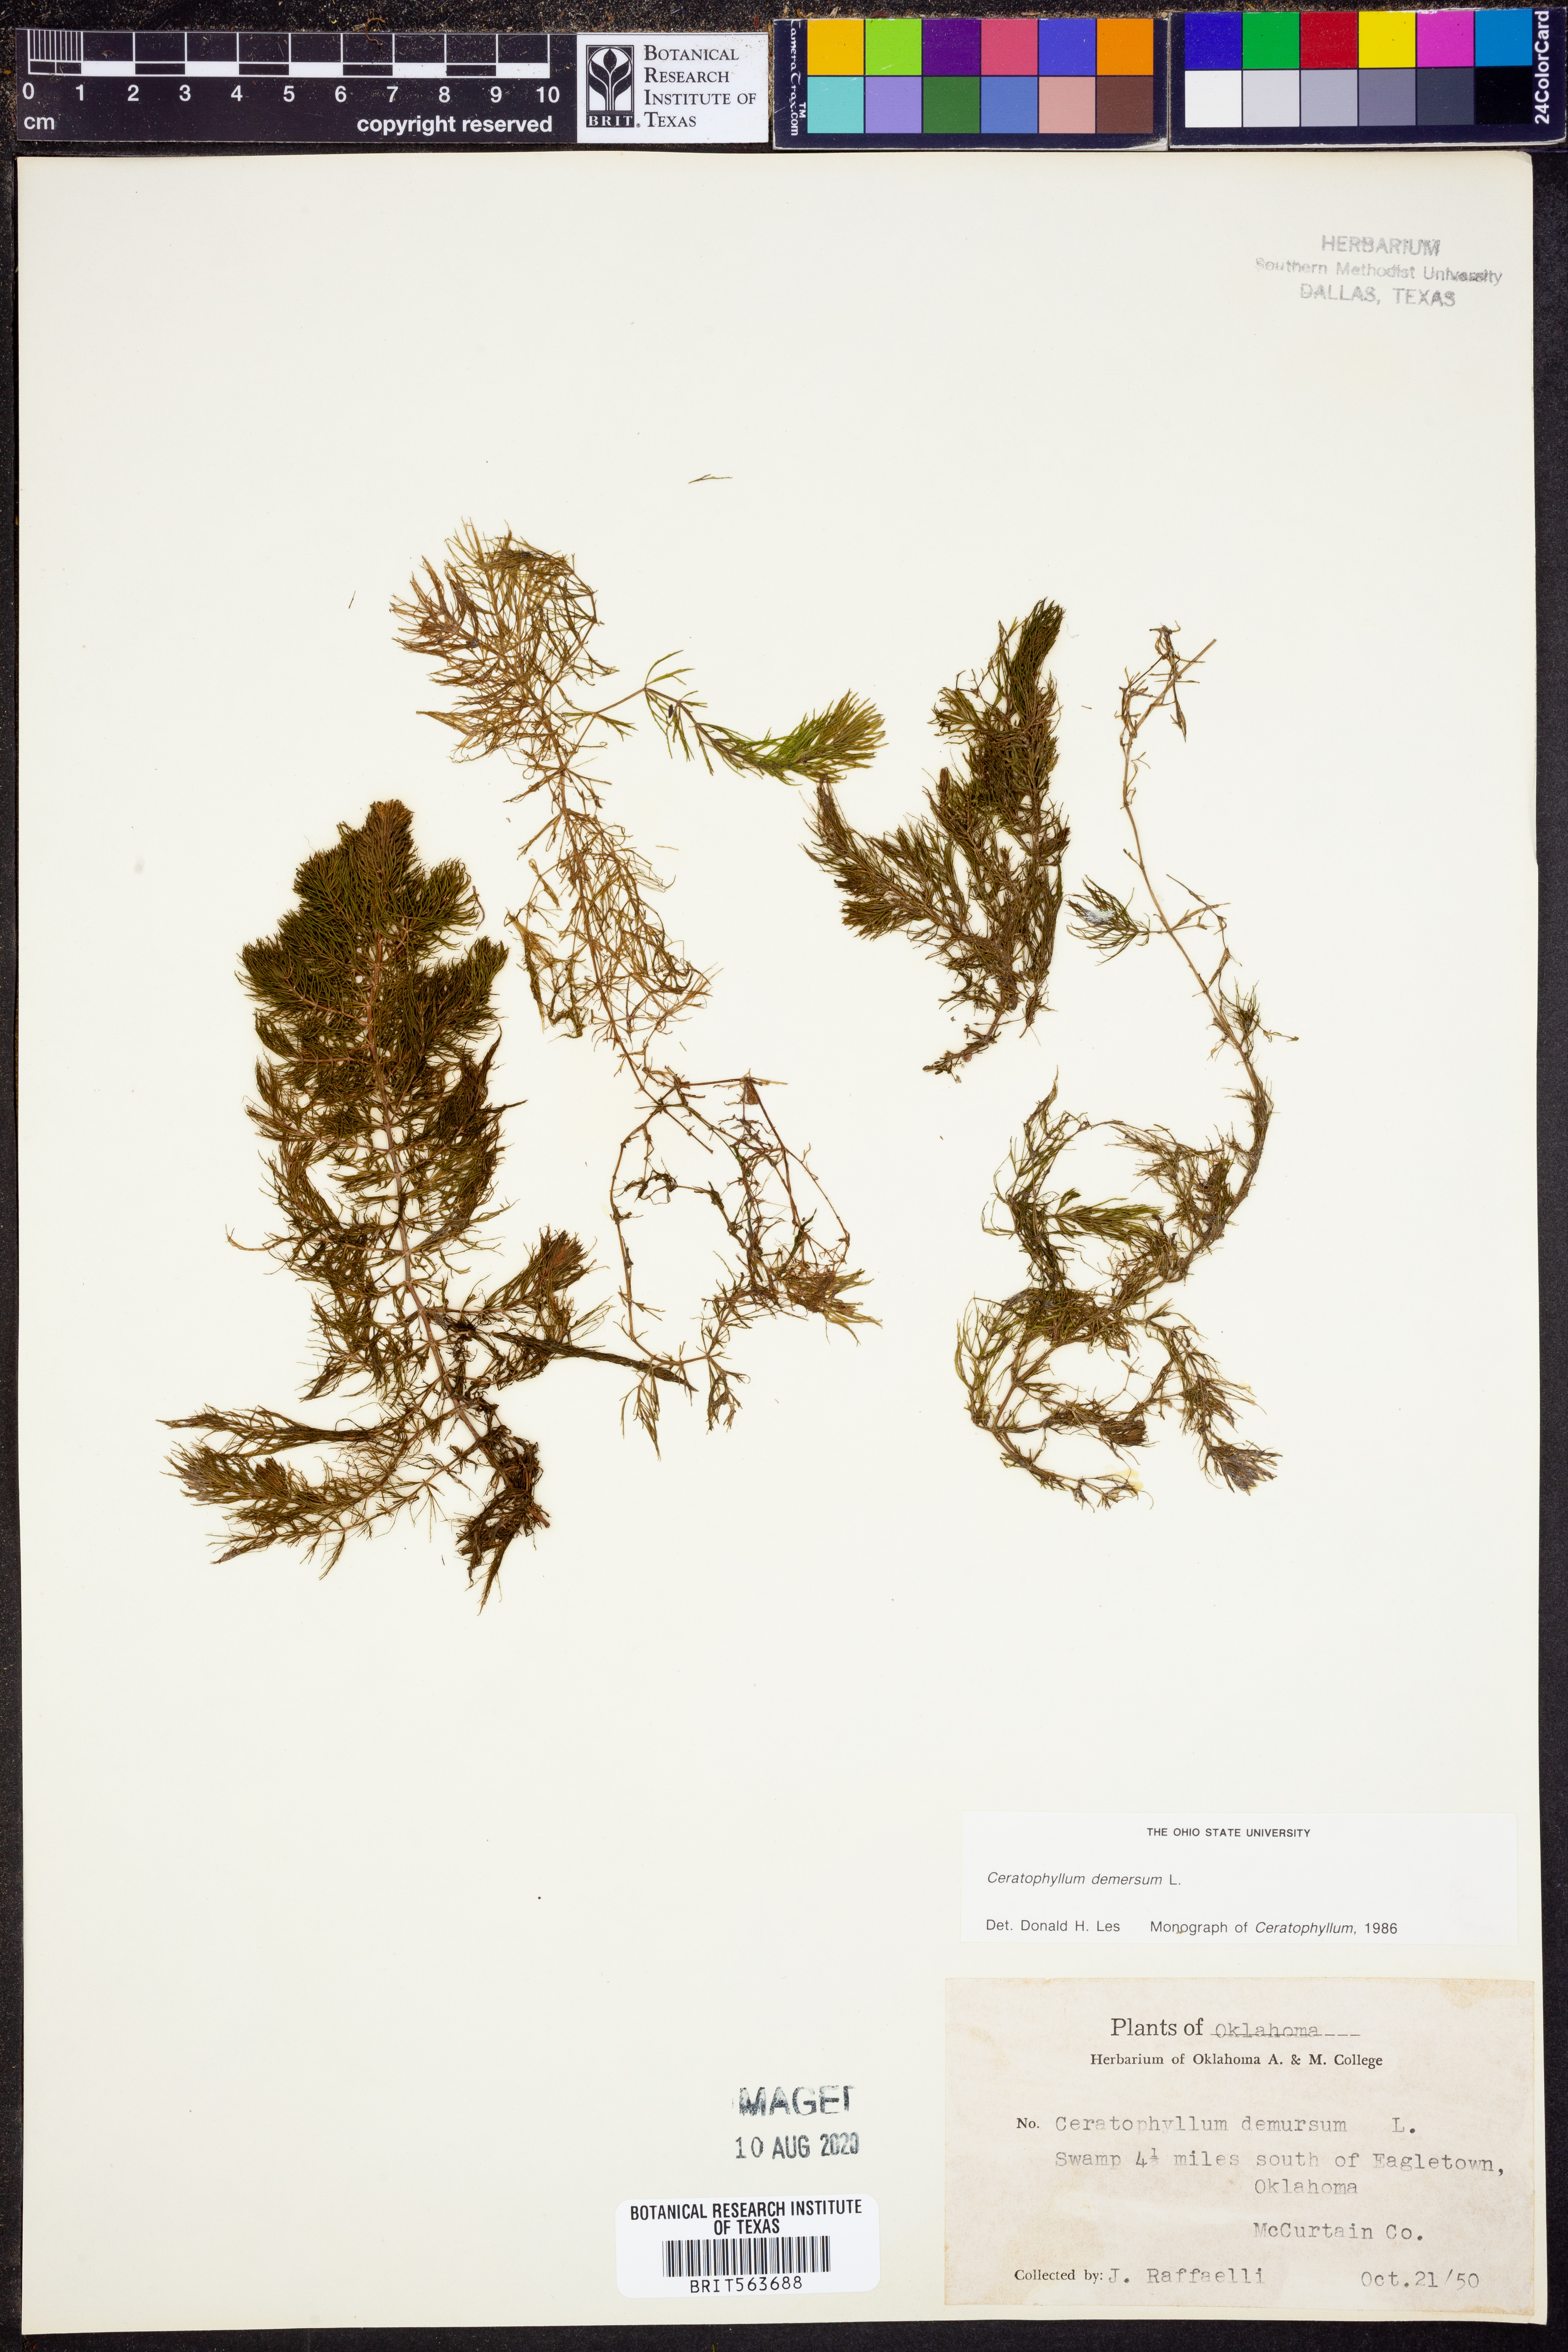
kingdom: Plantae
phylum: Tracheophyta
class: Magnoliopsida
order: Ceratophyllales
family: Ceratophyllaceae
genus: Ceratophyllum
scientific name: Ceratophyllum demersum
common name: Rigid hornwort
